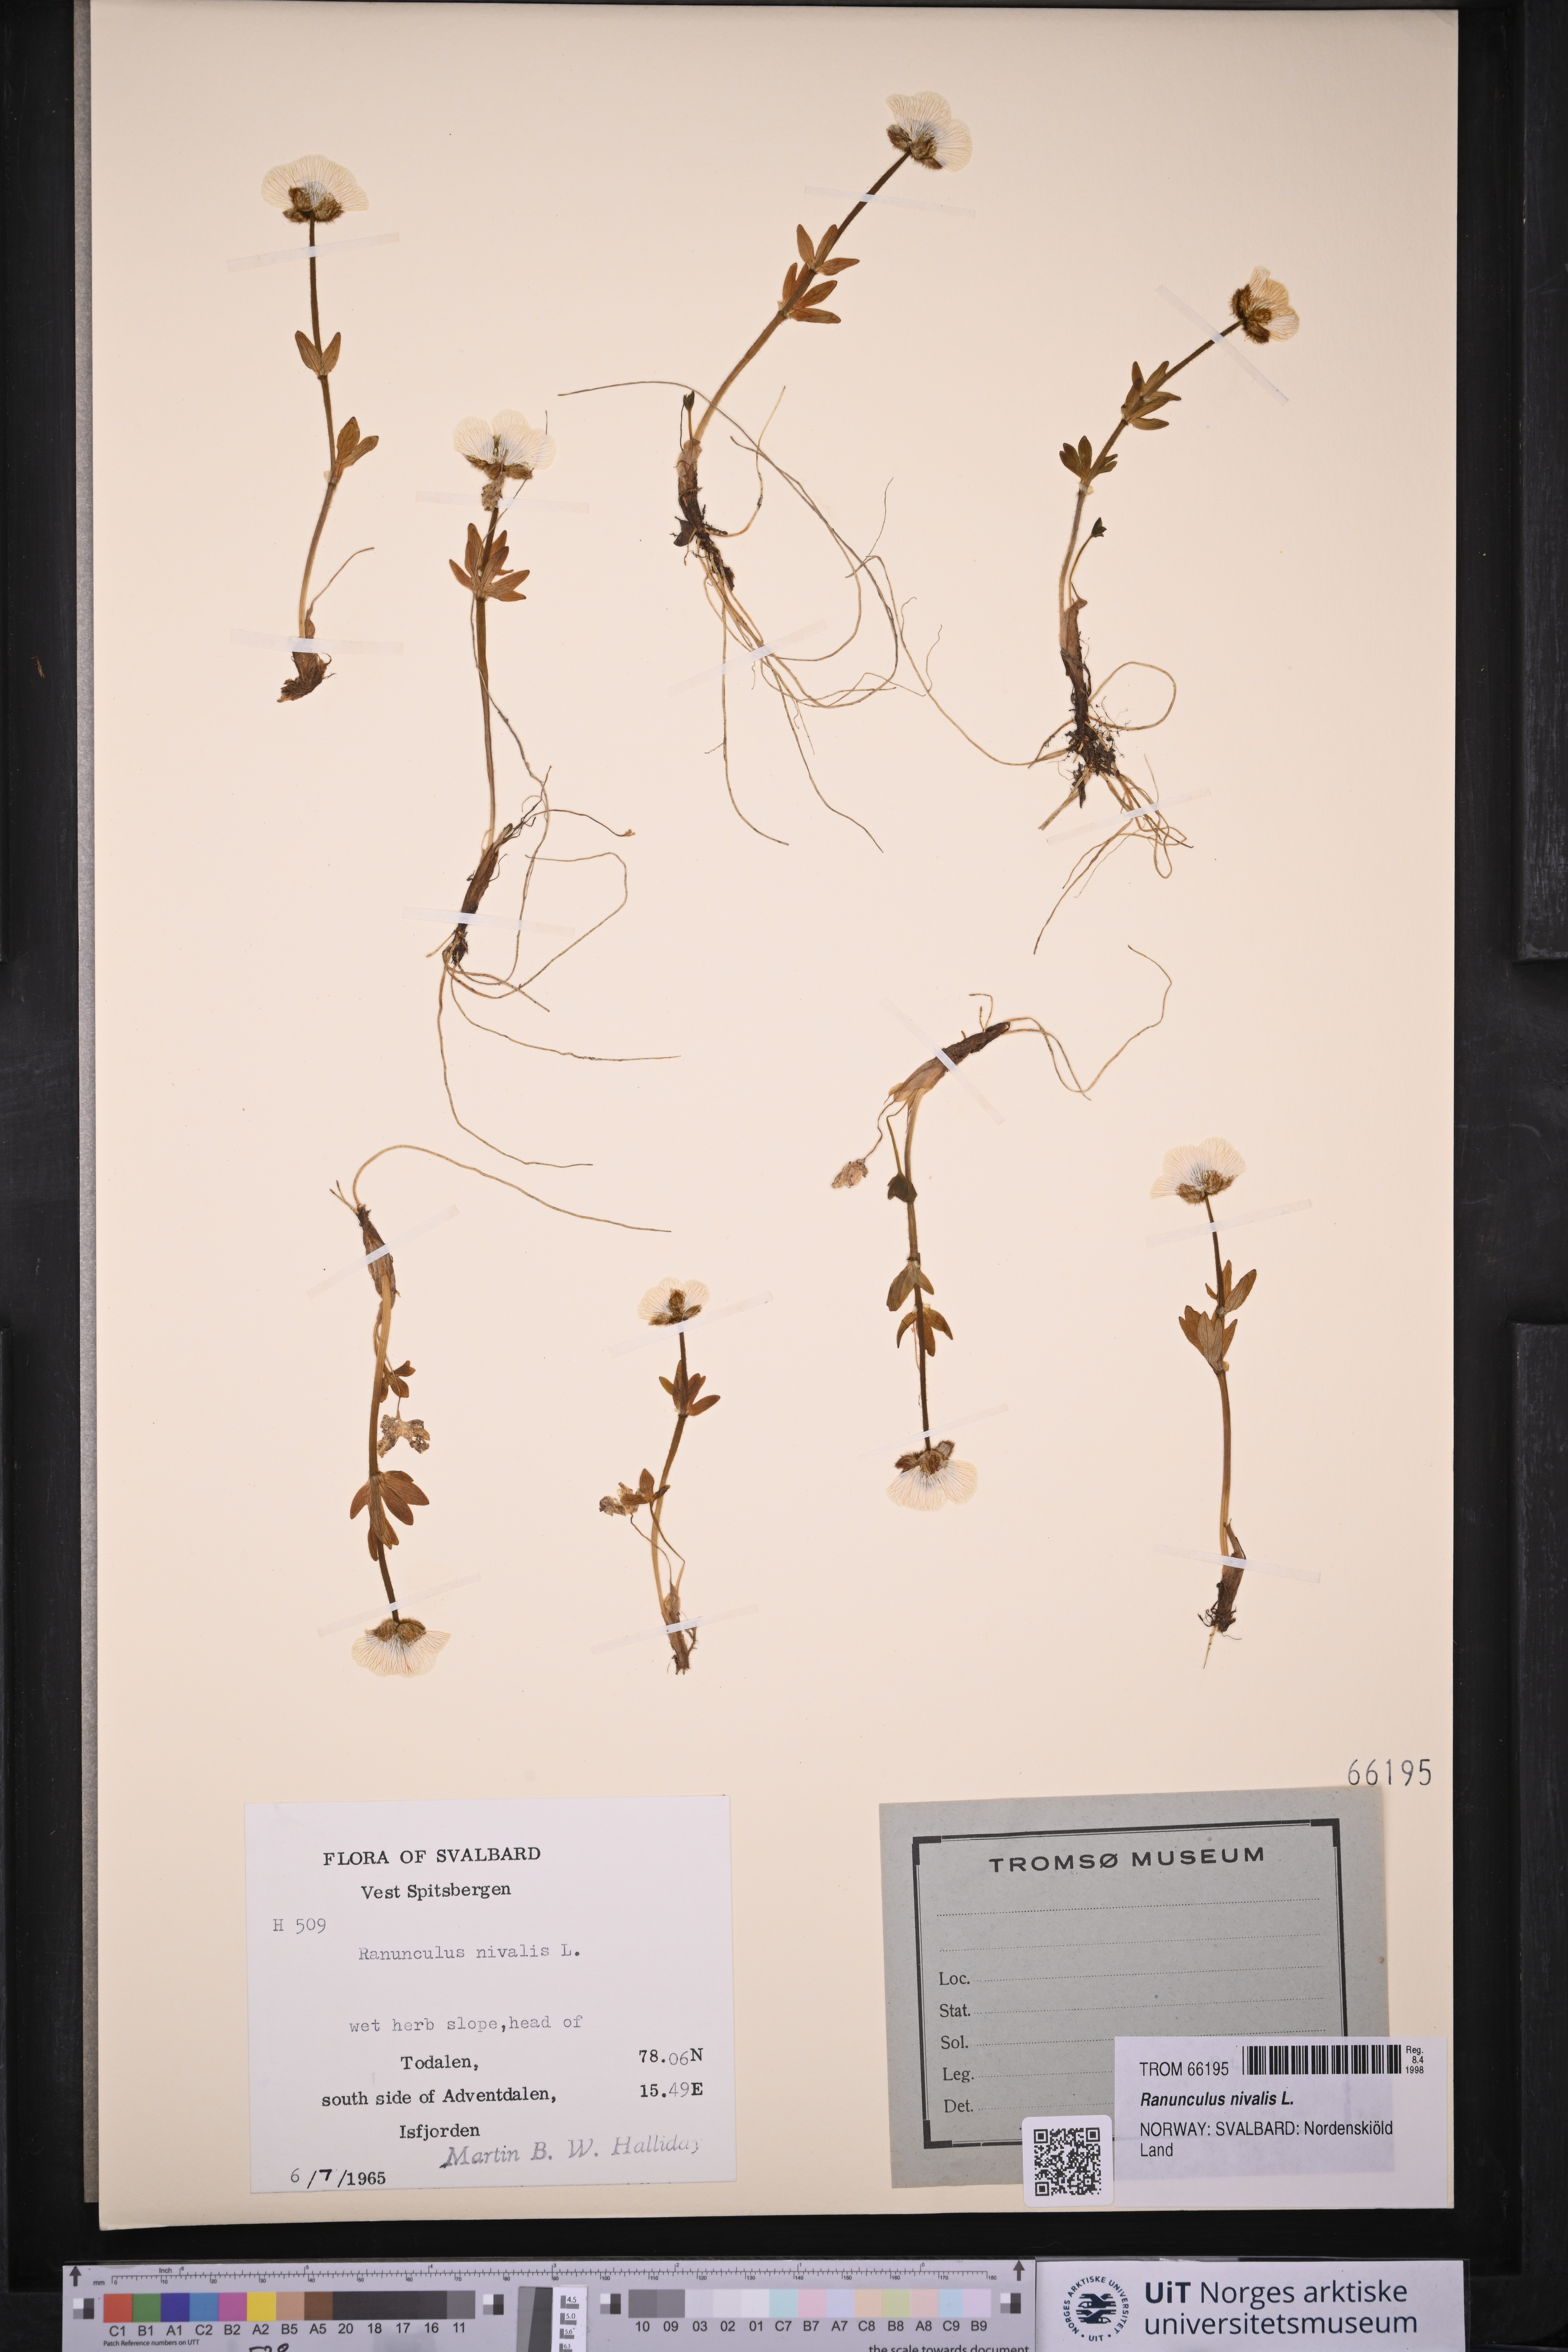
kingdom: Plantae
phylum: Tracheophyta
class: Magnoliopsida
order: Ranunculales
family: Ranunculaceae
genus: Ranunculus
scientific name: Ranunculus nivalis
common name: Snow buttercup
